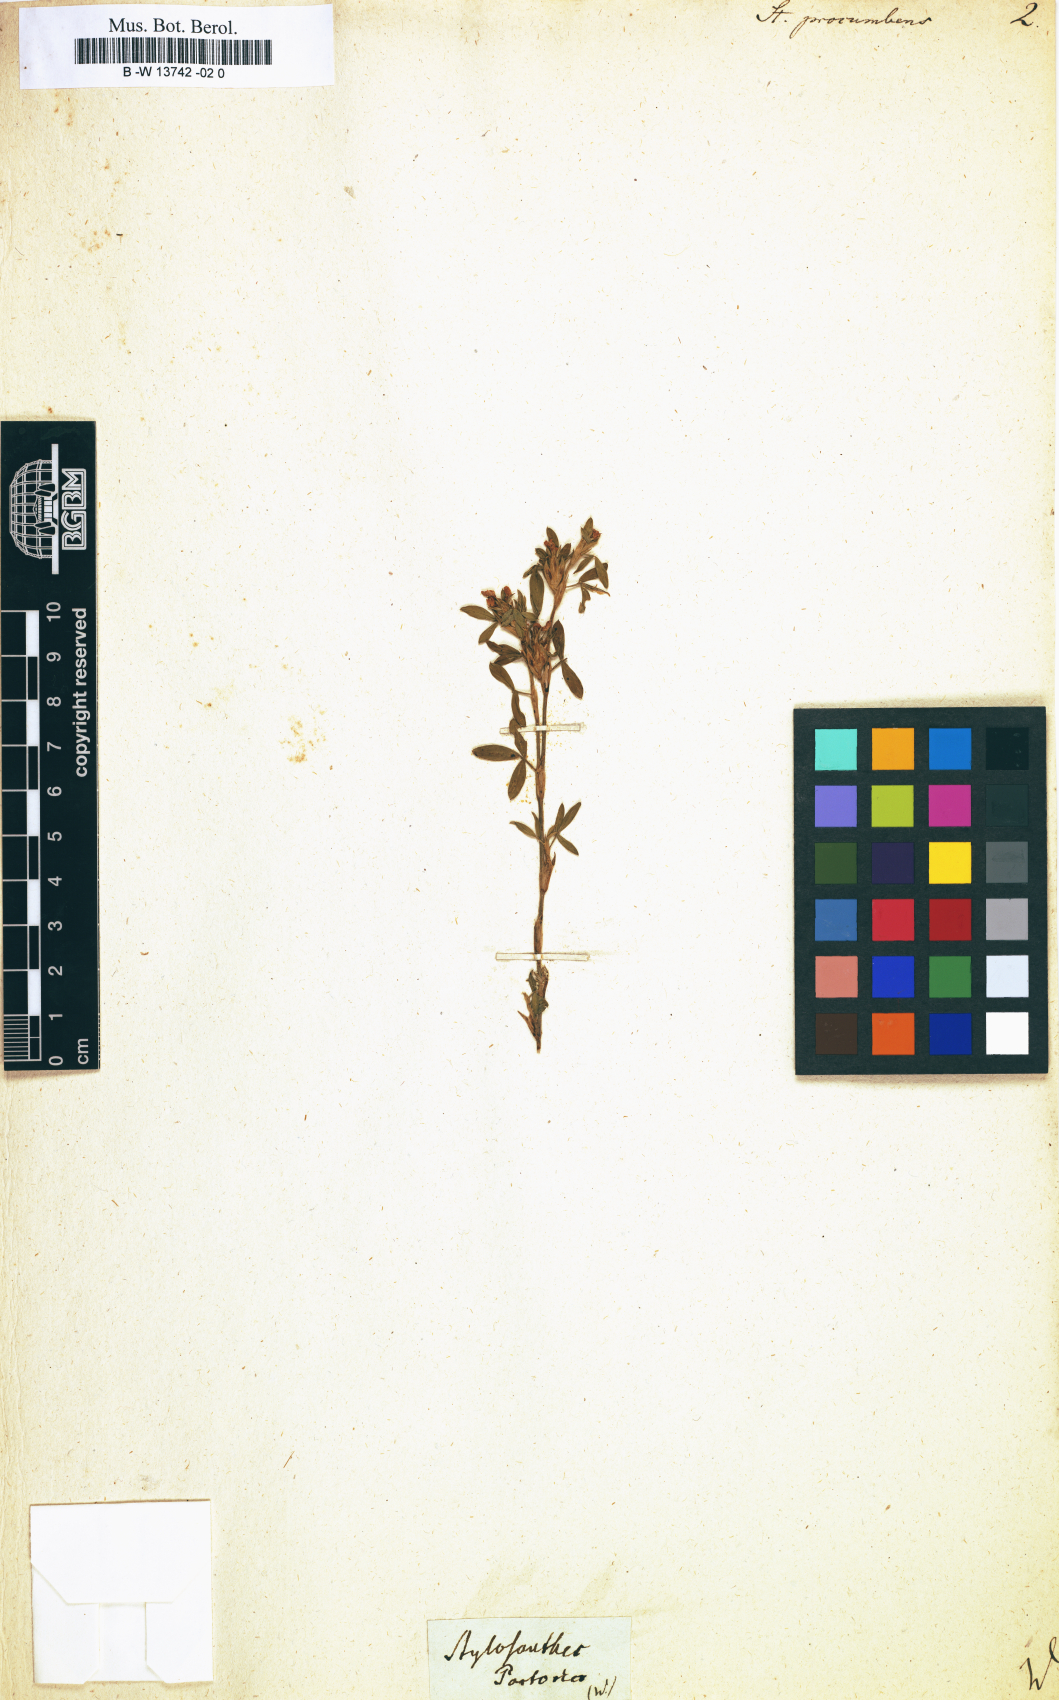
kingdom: Plantae
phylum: Tracheophyta
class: Magnoliopsida
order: Fabales
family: Fabaceae
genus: Stylosanthes
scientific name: Stylosanthes hamata
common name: Cheesytoes
